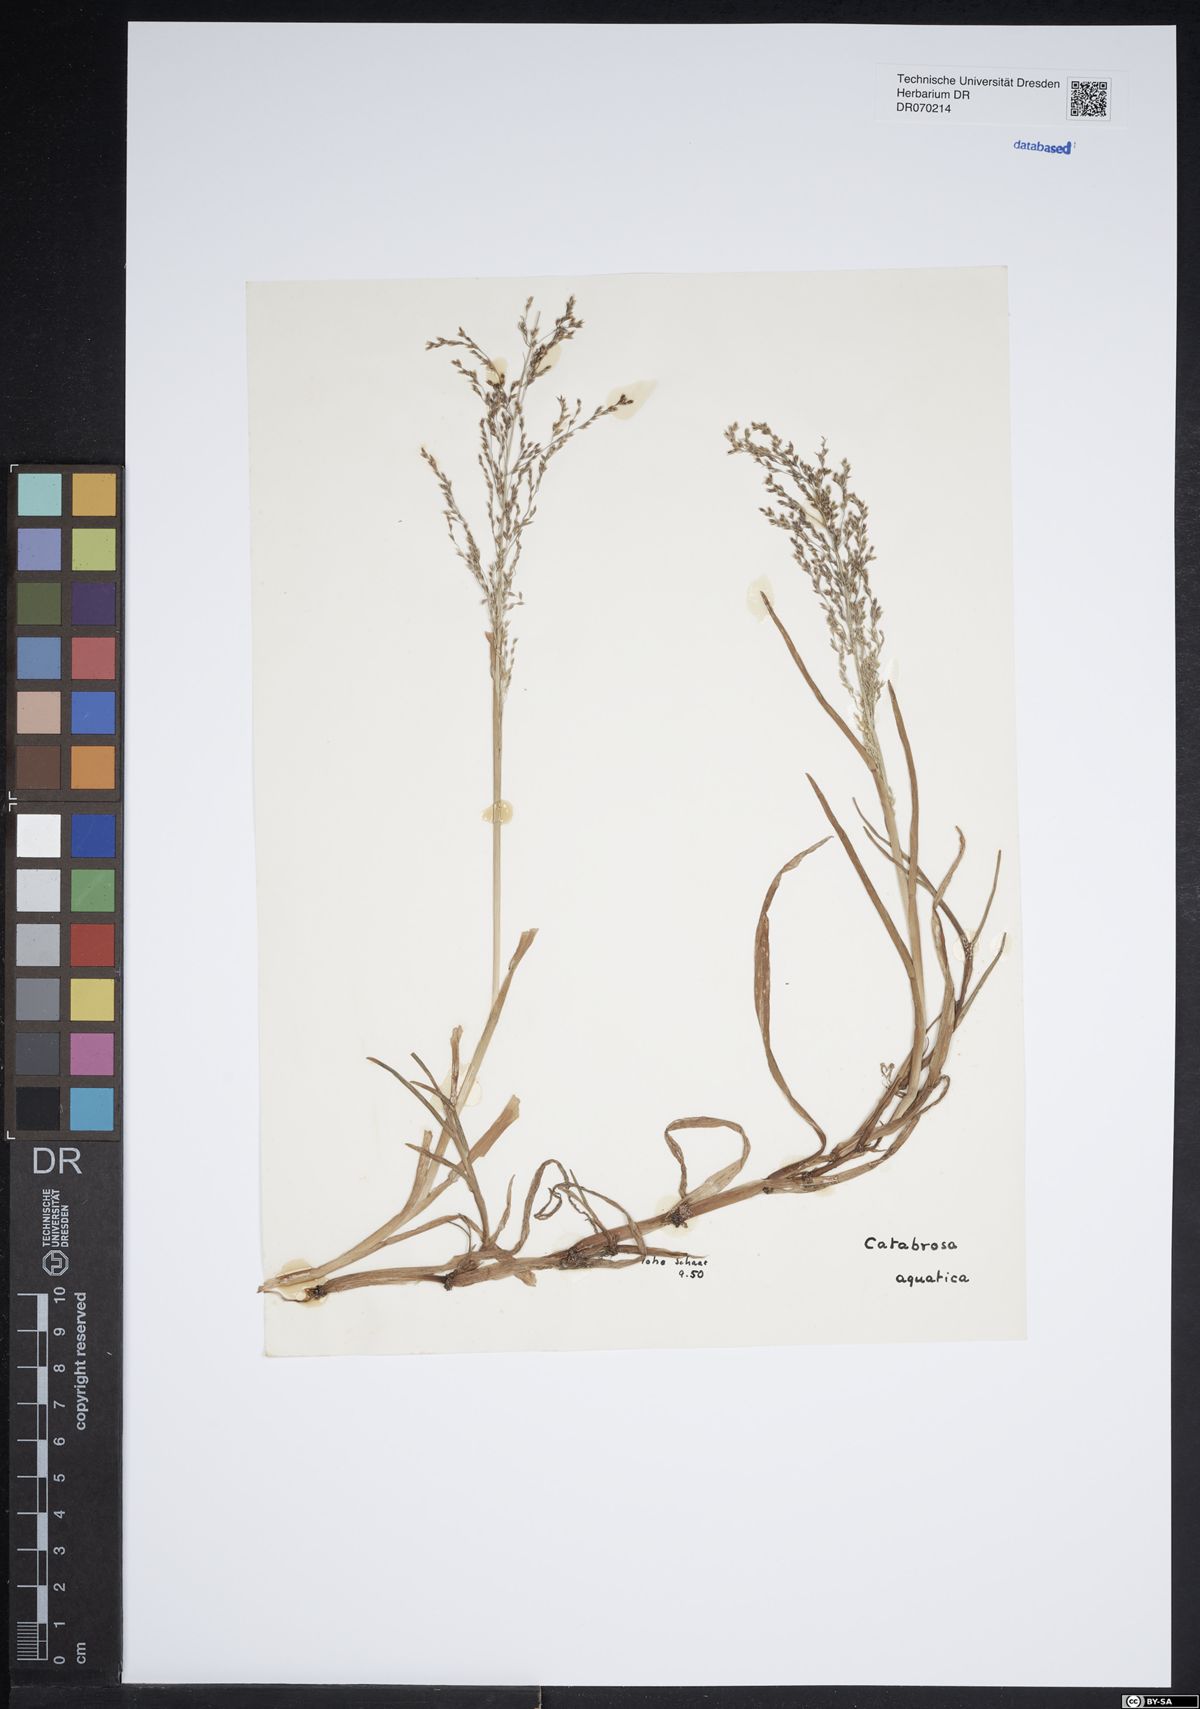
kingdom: Plantae
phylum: Tracheophyta
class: Liliopsida
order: Poales
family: Poaceae
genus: Catabrosa
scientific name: Catabrosa aquatica
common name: Whorl-grass
